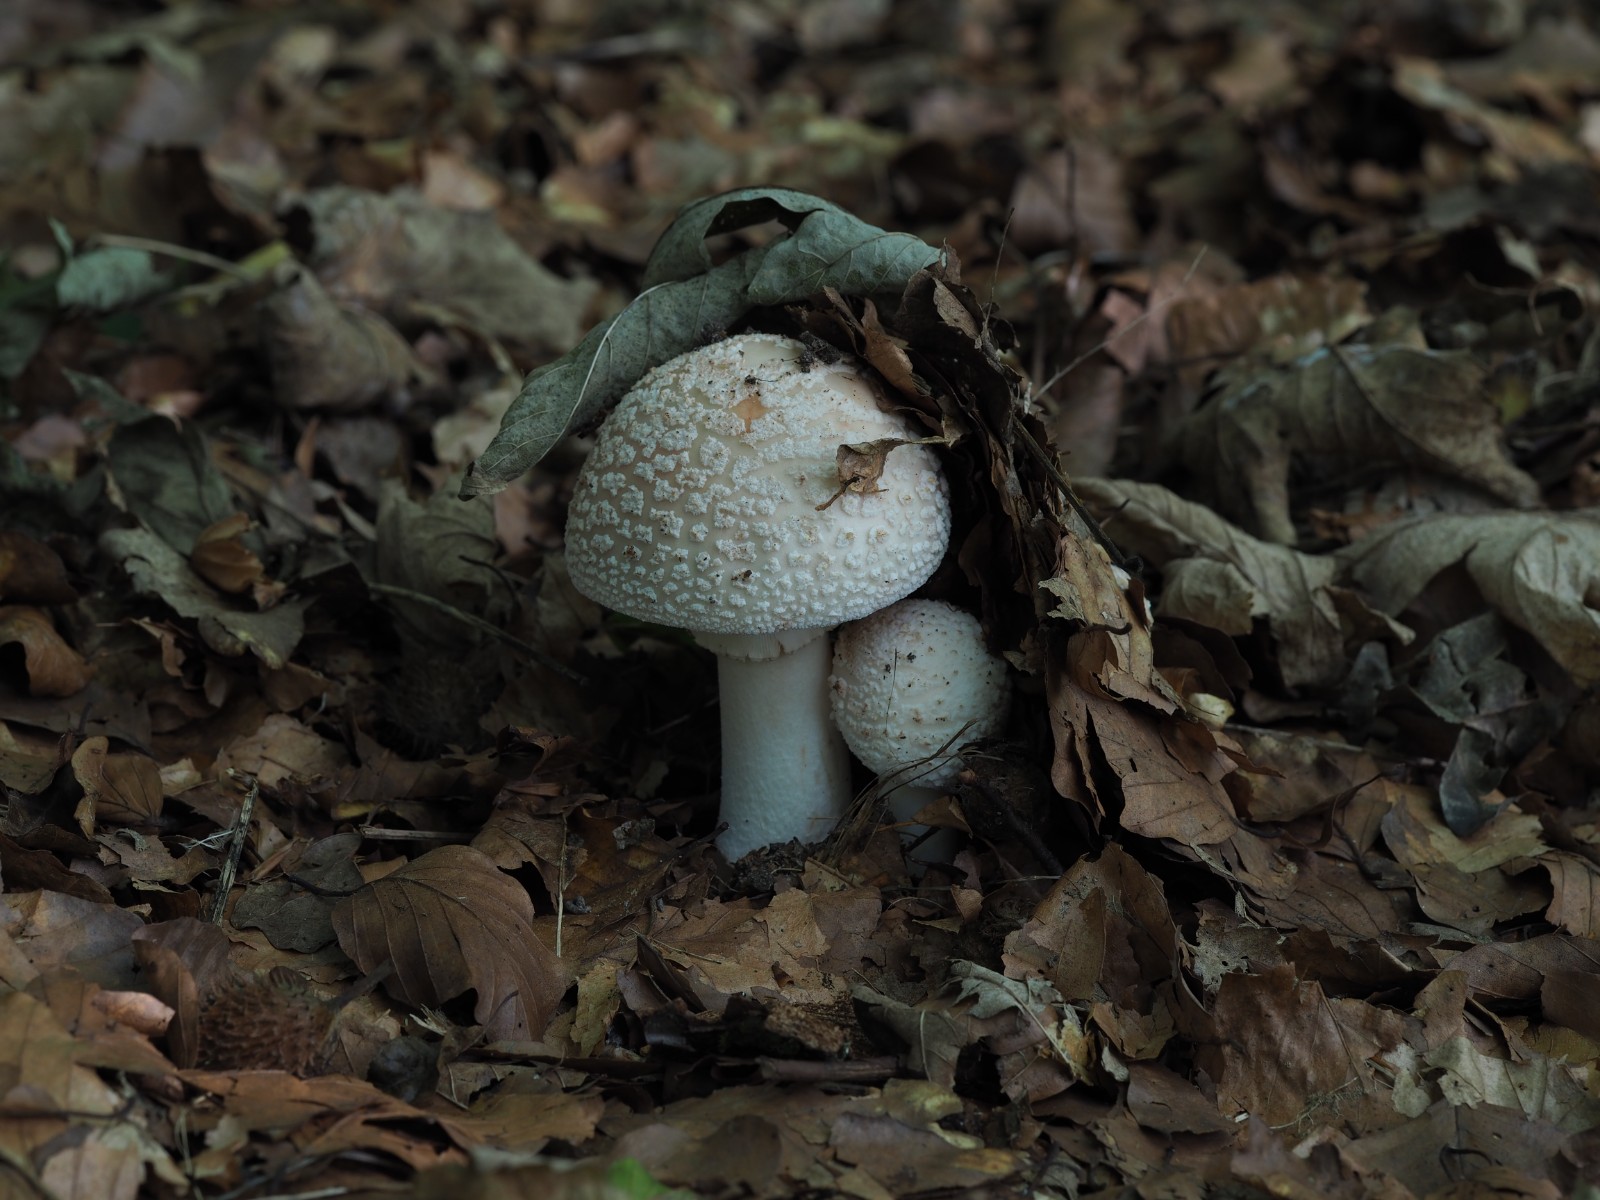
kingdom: Fungi
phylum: Basidiomycota
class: Agaricomycetes
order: Agaricales
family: Amanitaceae
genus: Amanita
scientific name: Amanita rubescens
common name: rødmende fluesvamp
